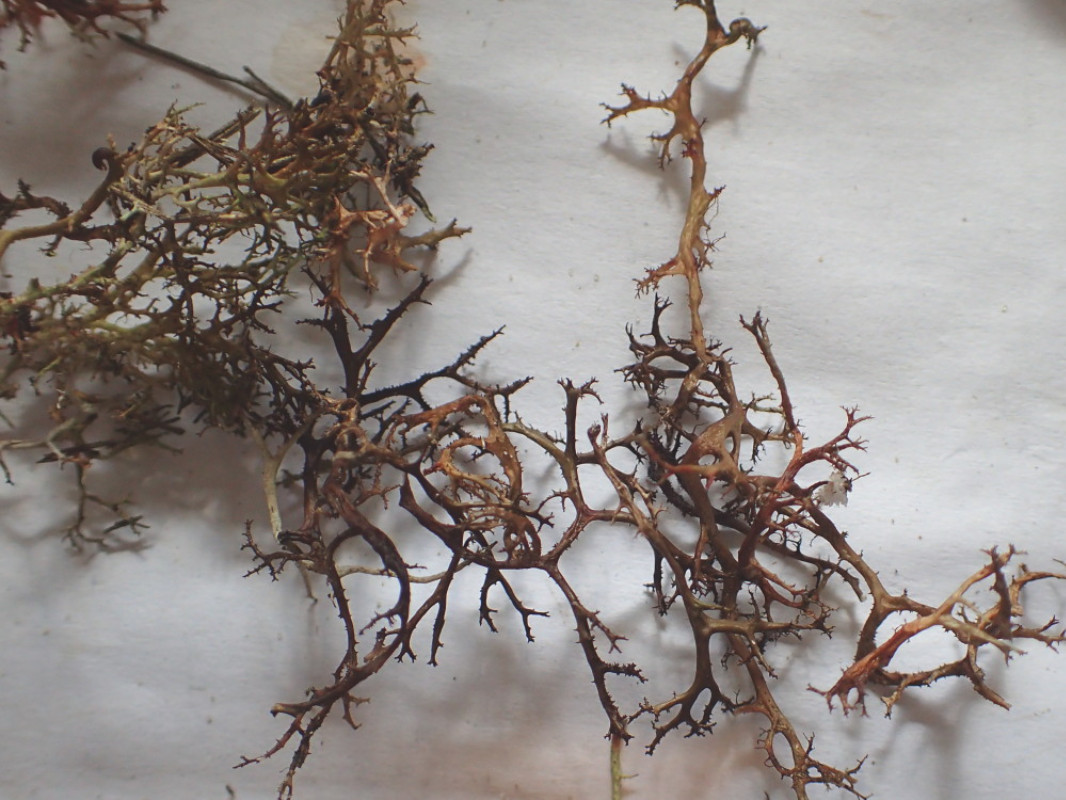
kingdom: Fungi
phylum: Ascomycota
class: Lecanoromycetes
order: Lecanorales
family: Parmeliaceae
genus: Cetraria
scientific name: Cetraria aculeata
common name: grubet tjørnelav
